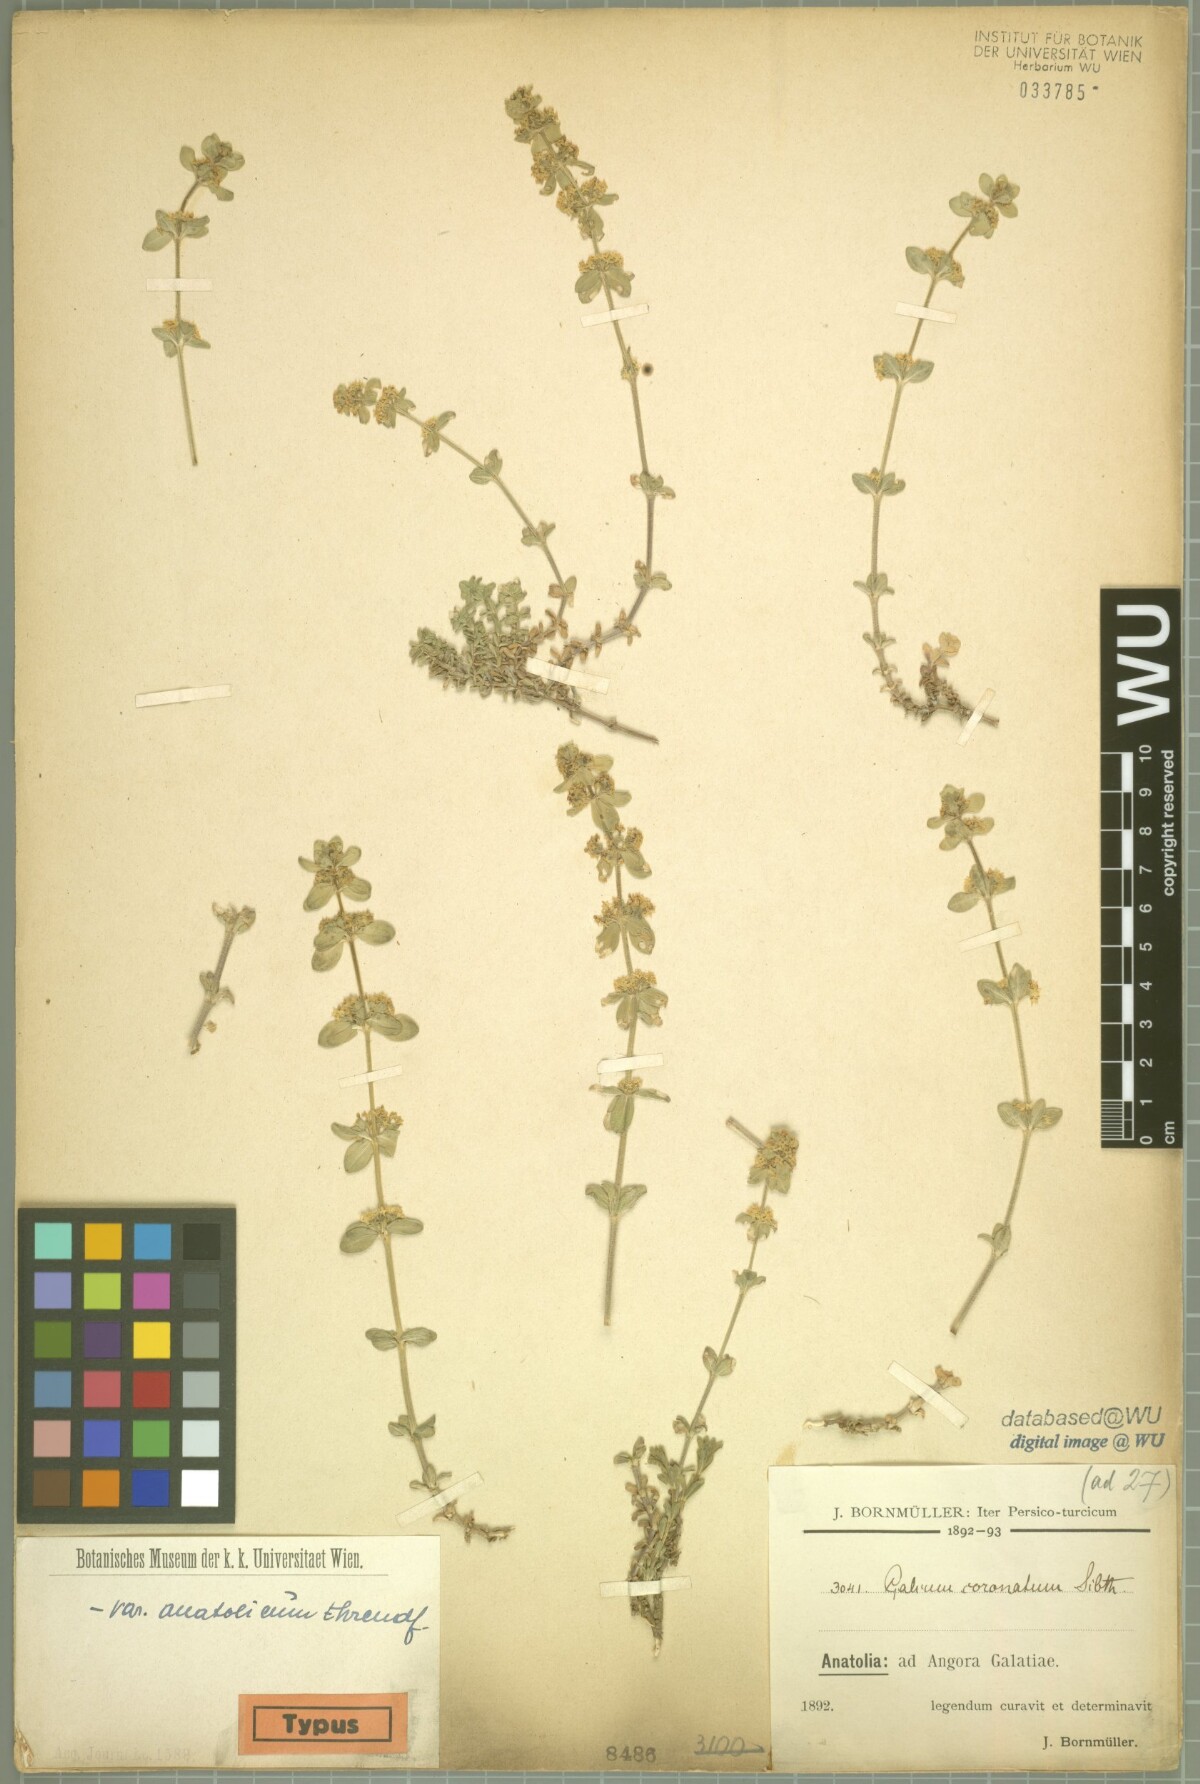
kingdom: Plantae
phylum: Tracheophyta
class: Magnoliopsida
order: Gentianales
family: Rubiaceae
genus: Cruciata
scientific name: Cruciata taurica
